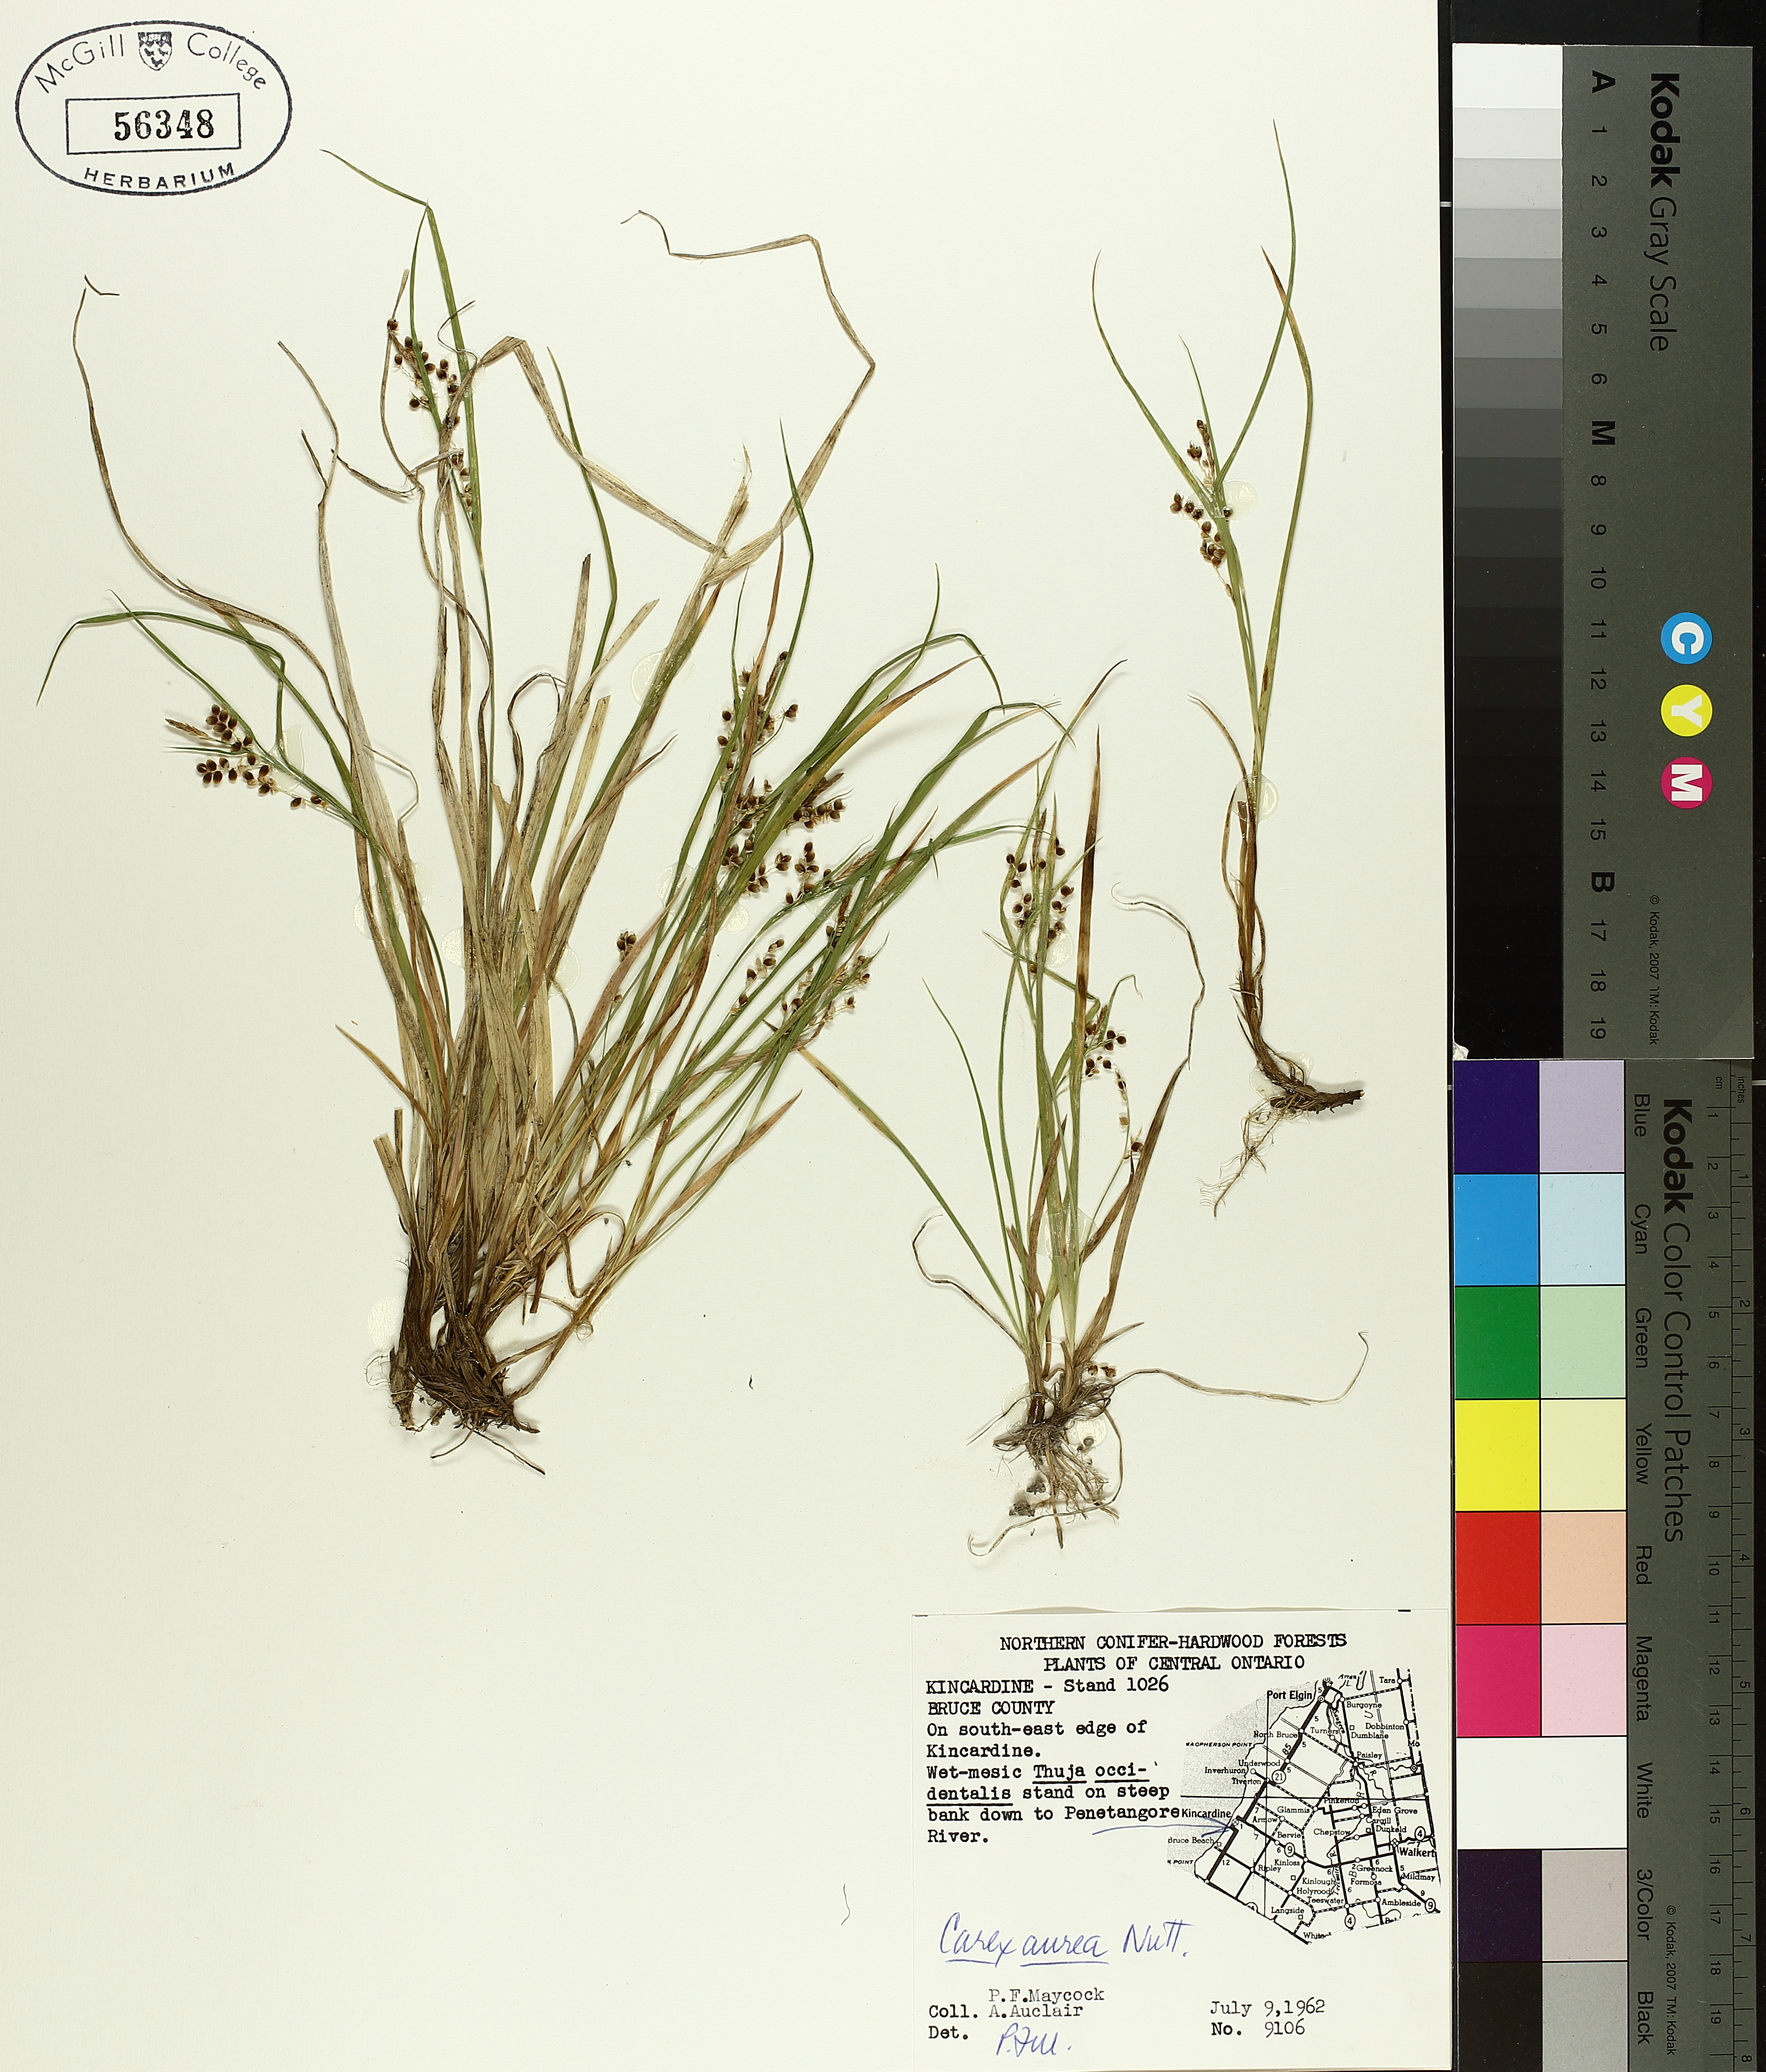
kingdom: Plantae
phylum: Tracheophyta
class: Liliopsida
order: Poales
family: Cyperaceae
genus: Carex
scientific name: Carex aurea
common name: Golden sedge
